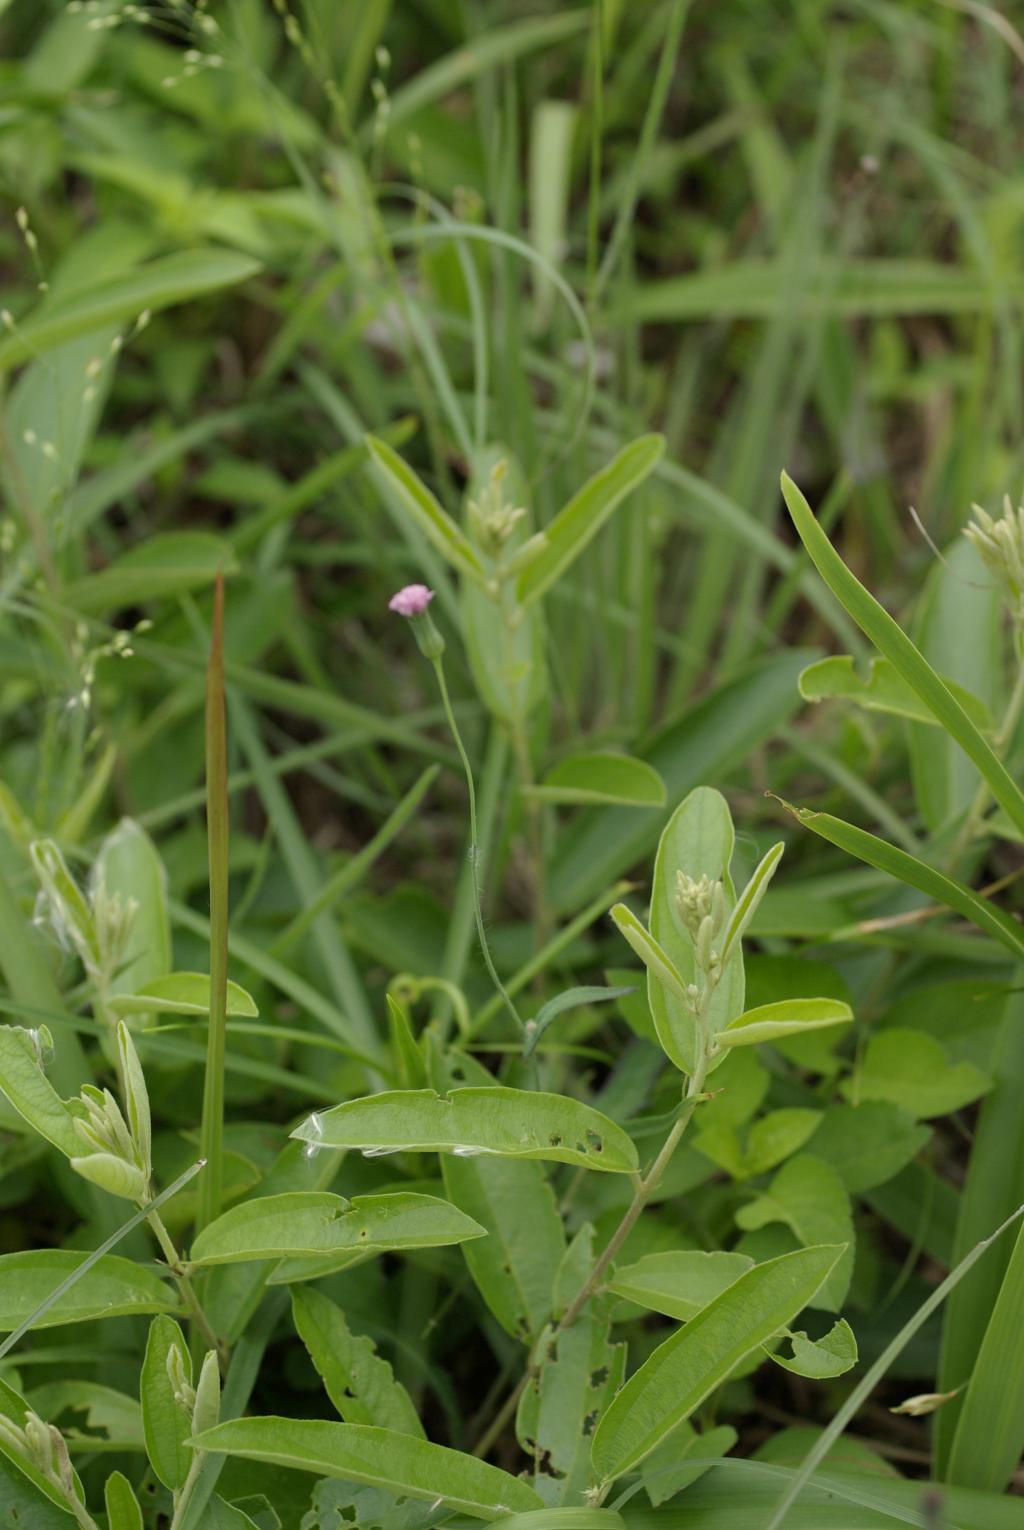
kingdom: Plantae
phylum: Tracheophyta
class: Magnoliopsida
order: Asterales
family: Asteraceae
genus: Emilia
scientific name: Emilia sonchifolia
